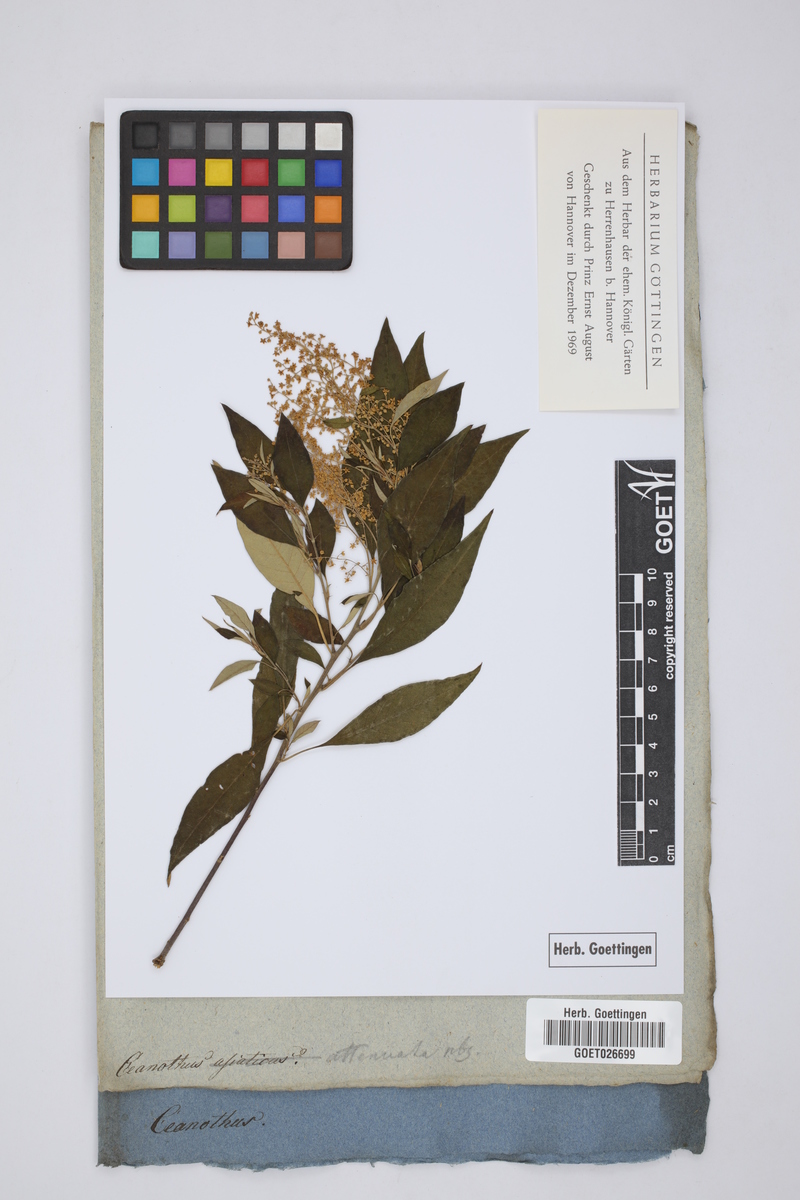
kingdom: Plantae
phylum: Tracheophyta
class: Magnoliopsida
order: Rosales
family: Rhamnaceae
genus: Ceanothus
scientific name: Ceanothus
